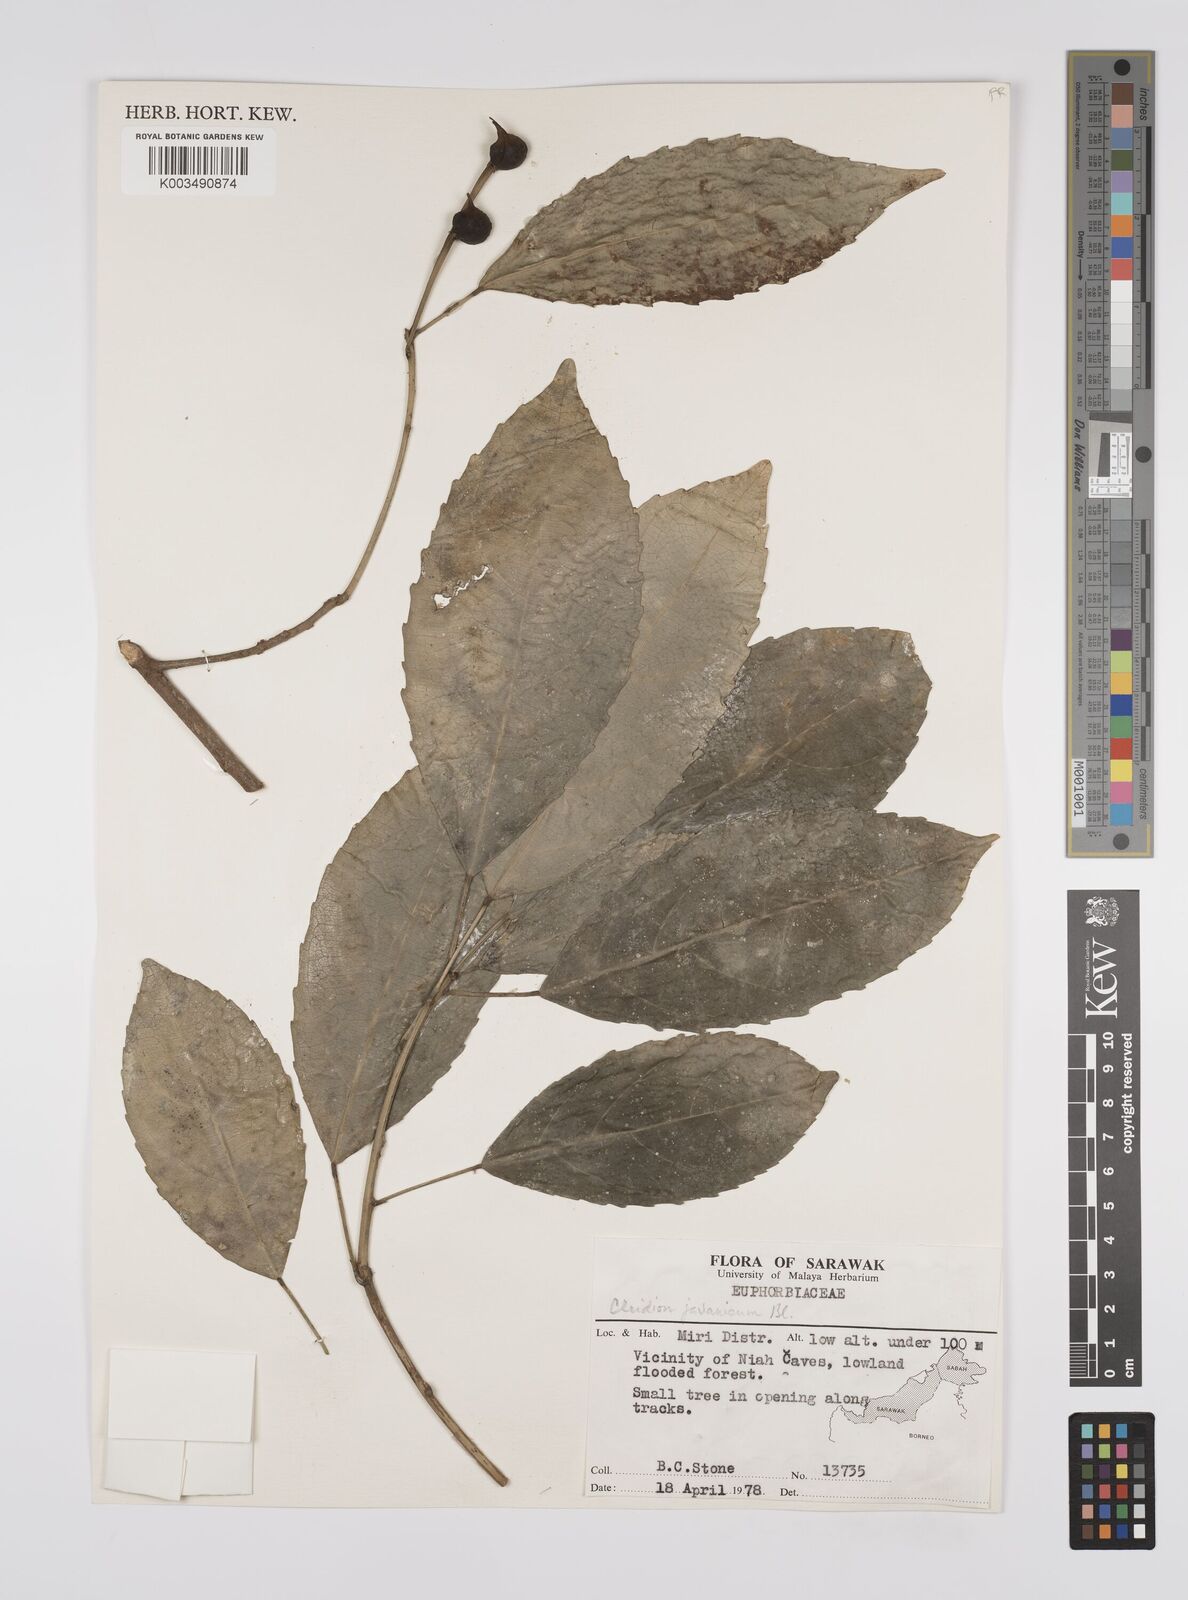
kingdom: Plantae
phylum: Tracheophyta
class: Magnoliopsida
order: Malpighiales
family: Euphorbiaceae
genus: Acalypha
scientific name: Acalypha spiciflora
